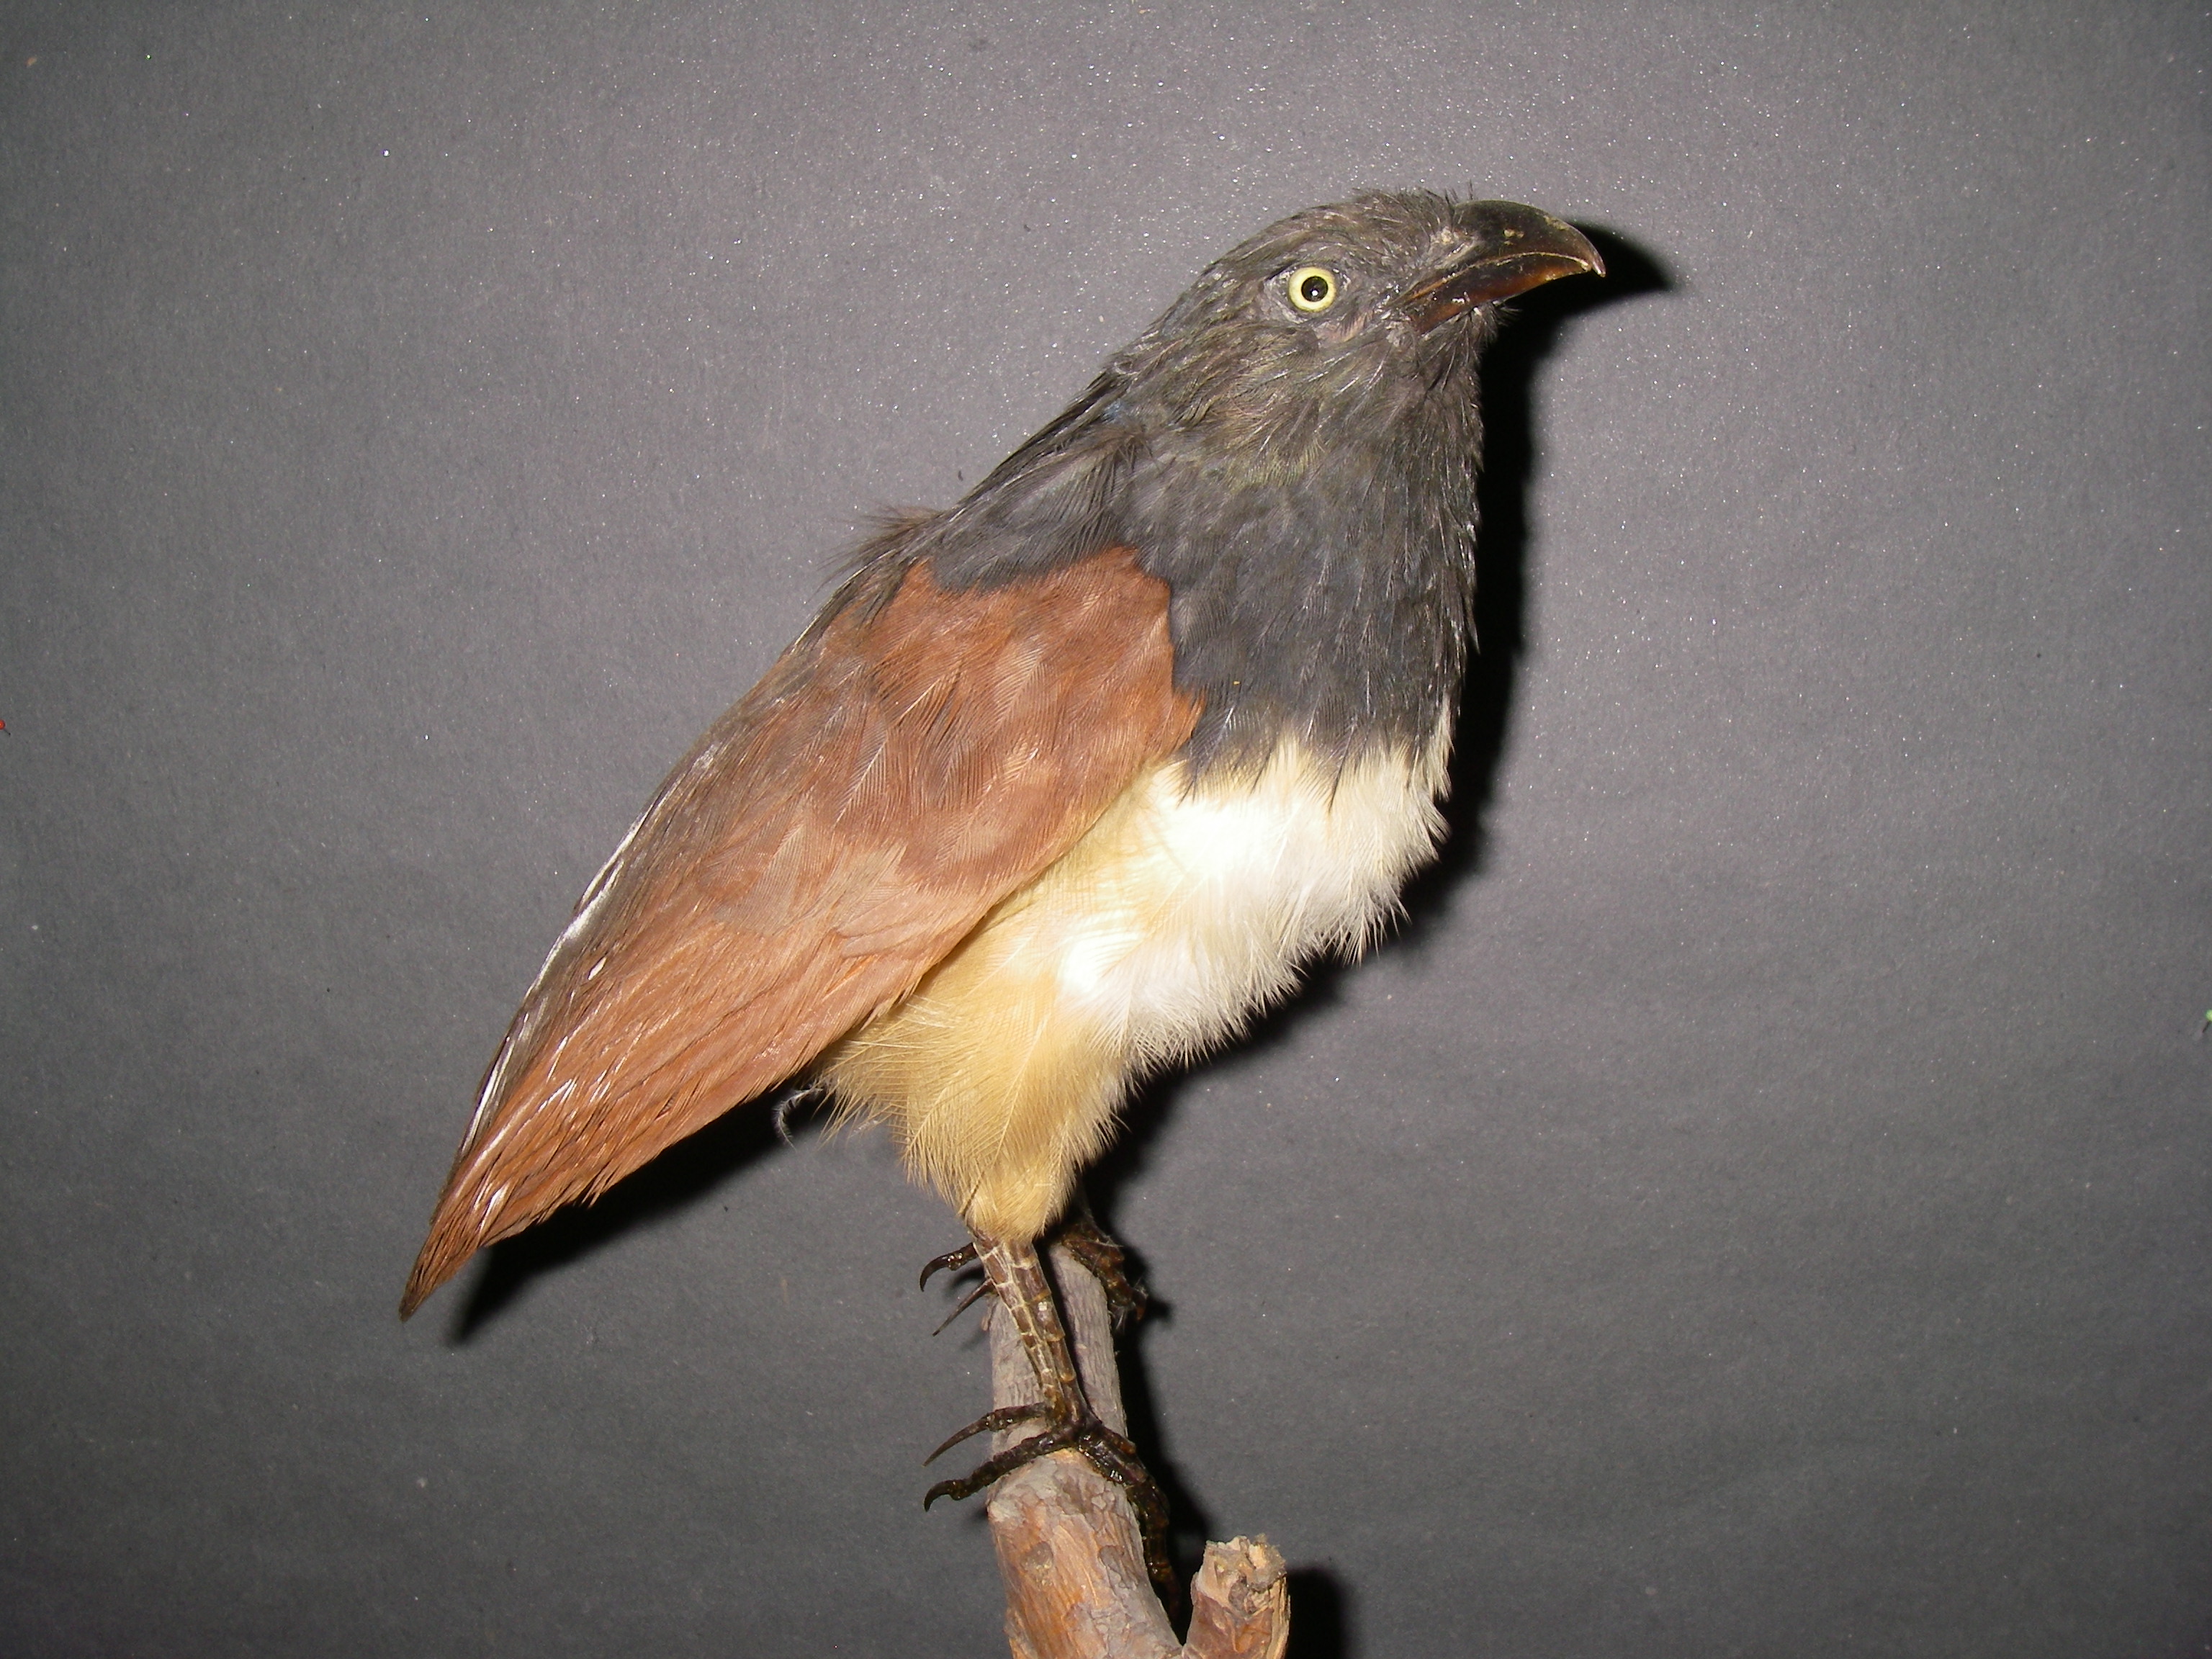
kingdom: Animalia
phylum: Chordata
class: Aves
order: Cuculiformes
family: Cuculidae
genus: Centropus
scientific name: Centropus leucogaster
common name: Black-throated coucal
